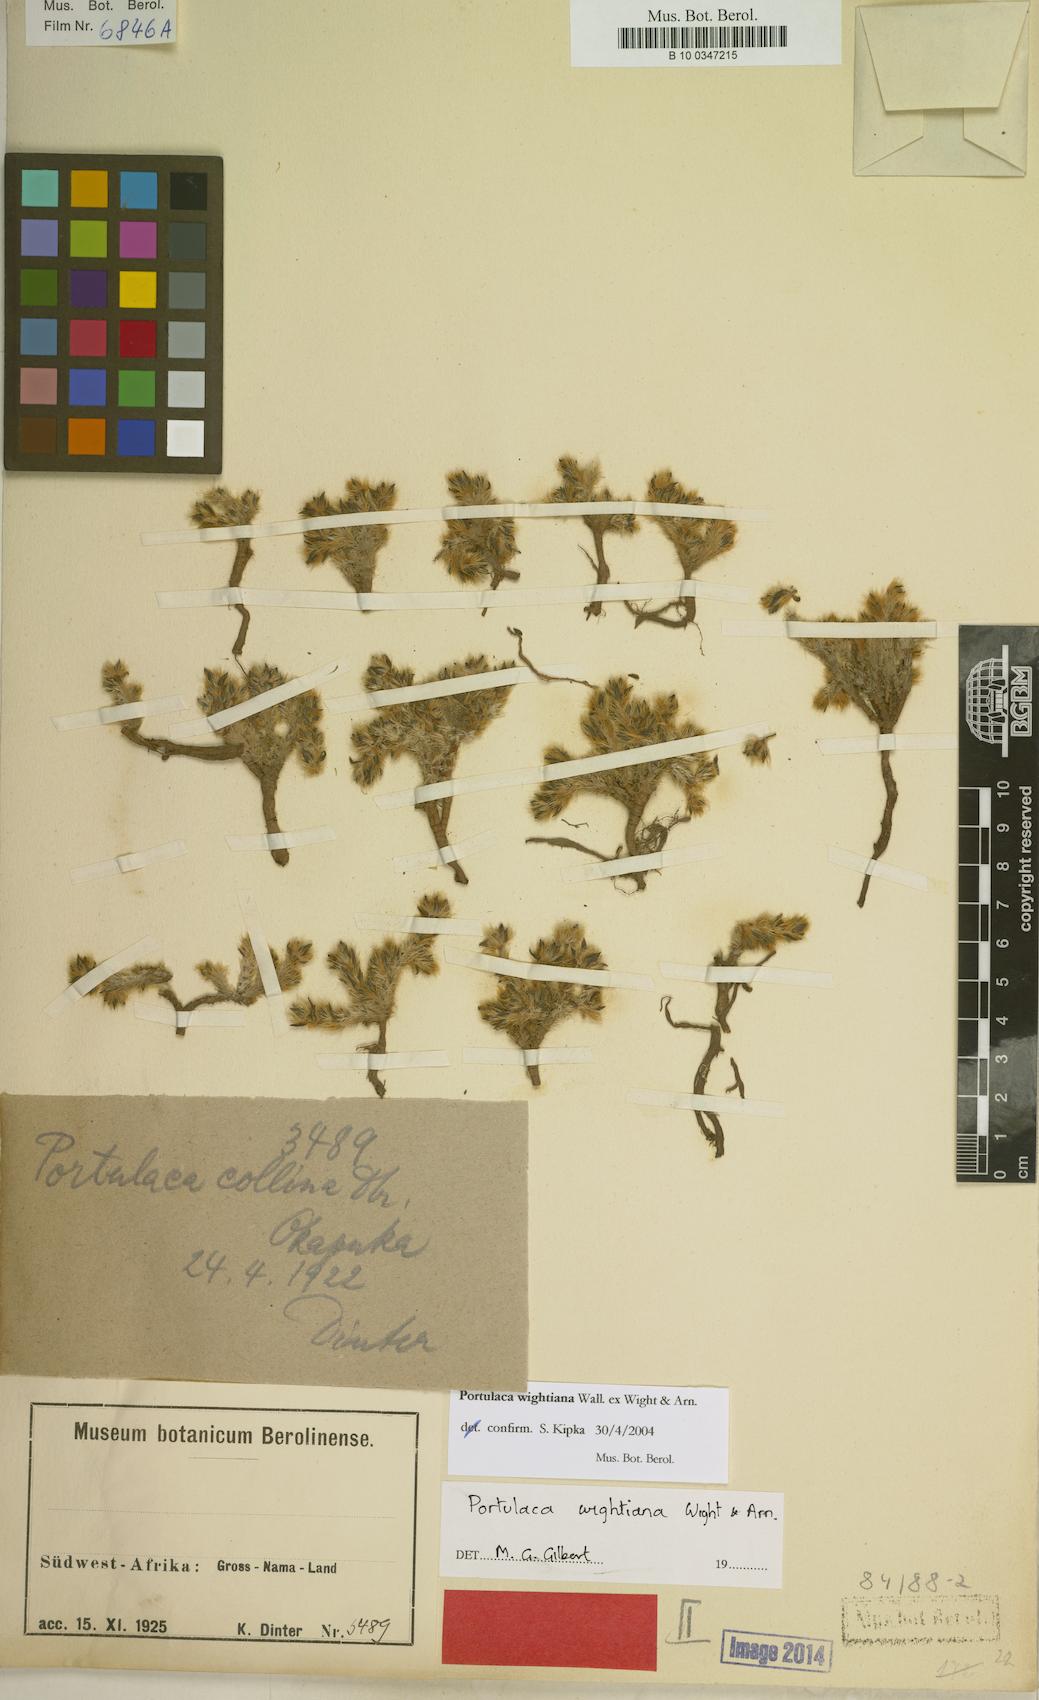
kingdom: Plantae
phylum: Tracheophyta
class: Magnoliopsida
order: Caryophyllales
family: Portulacaceae
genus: Portulaca
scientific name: Portulaca wightiana
